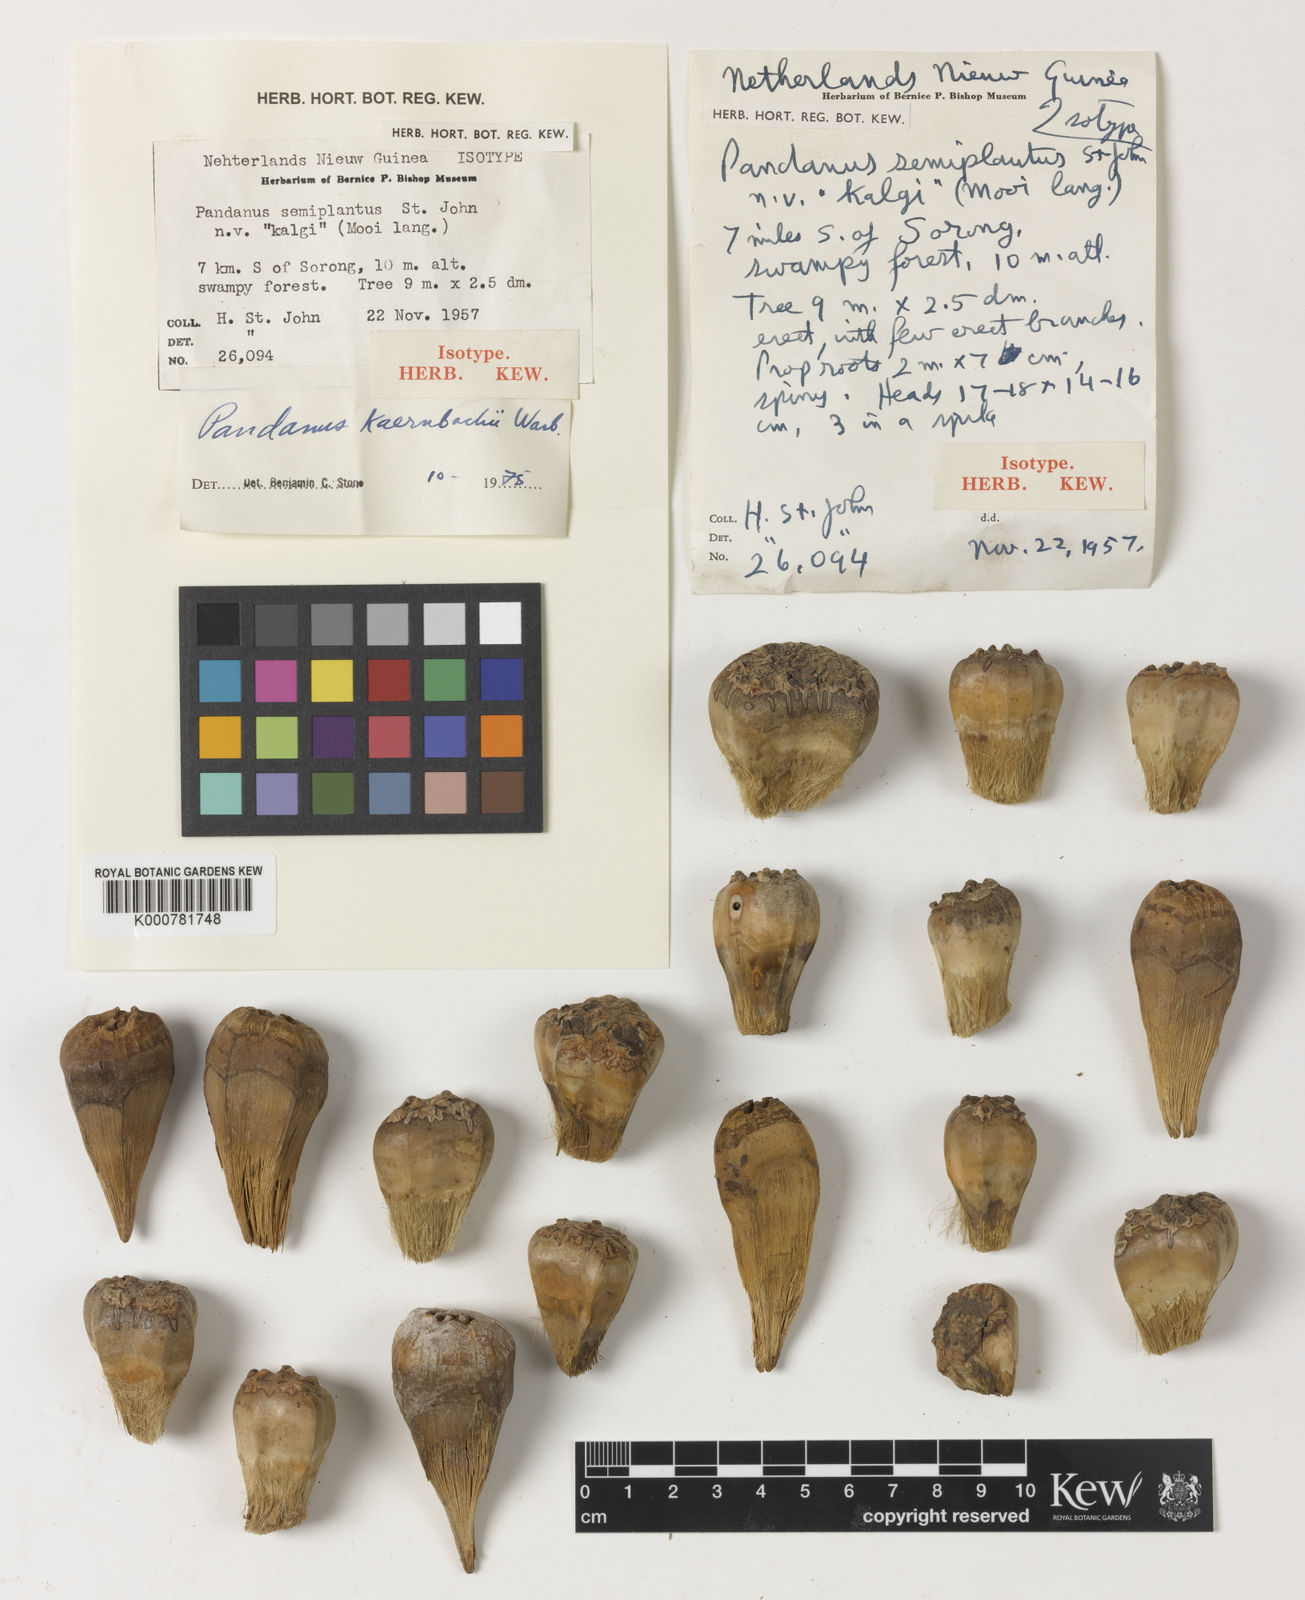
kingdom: Plantae
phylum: Tracheophyta
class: Liliopsida
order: Pandanales
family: Pandanaceae
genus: Pandanus
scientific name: Pandanus kaernbachii
